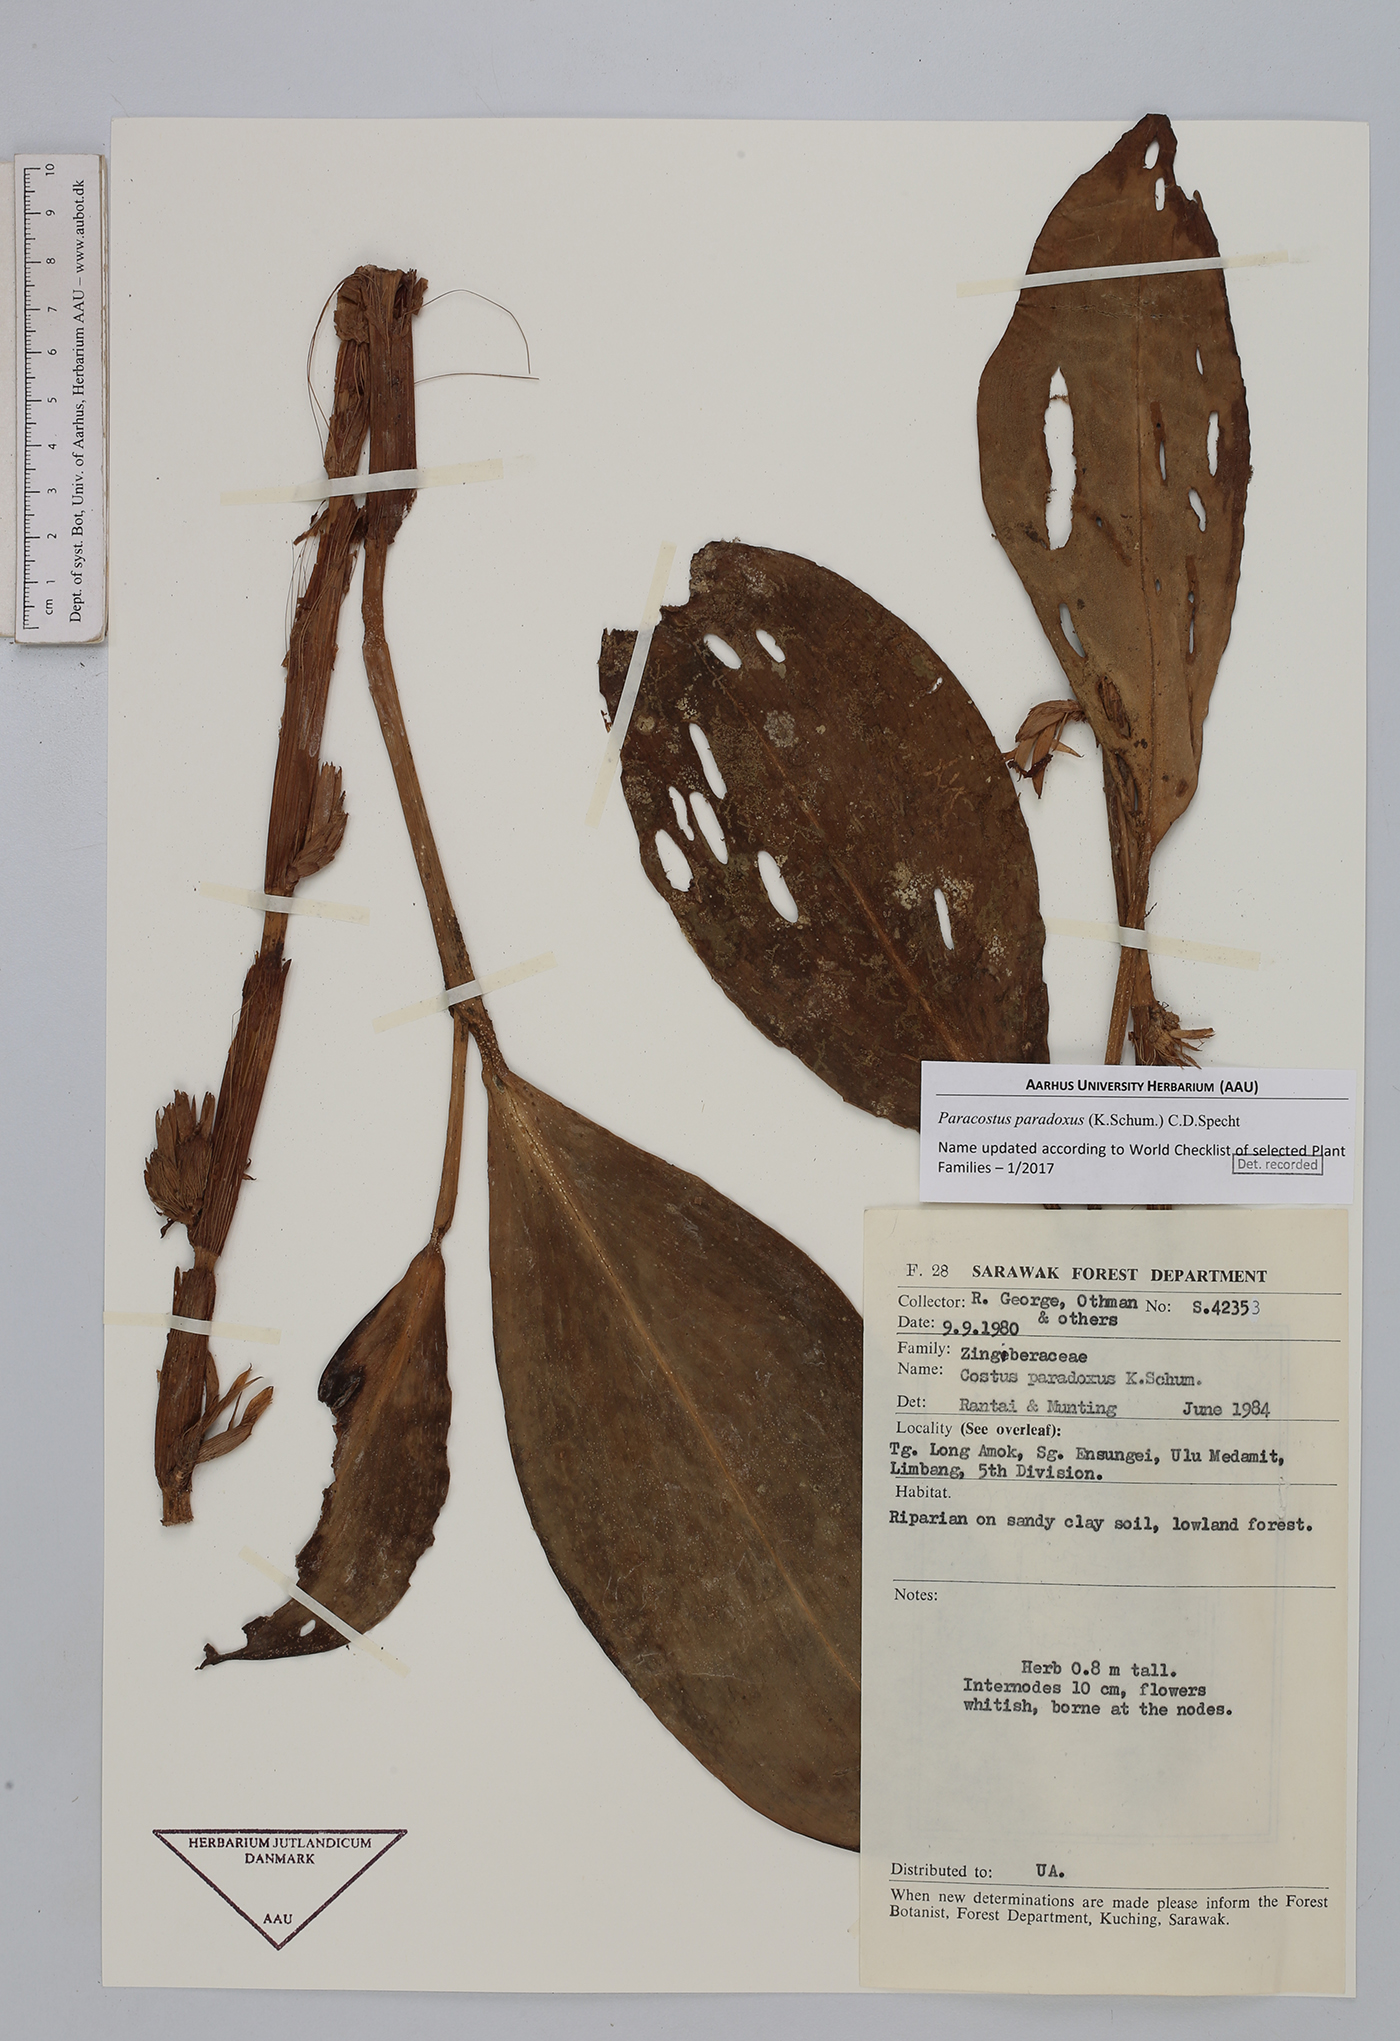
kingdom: Plantae
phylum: Tracheophyta
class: Liliopsida
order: Zingiberales
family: Costaceae
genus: Paracostus
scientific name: Paracostus paradoxus
